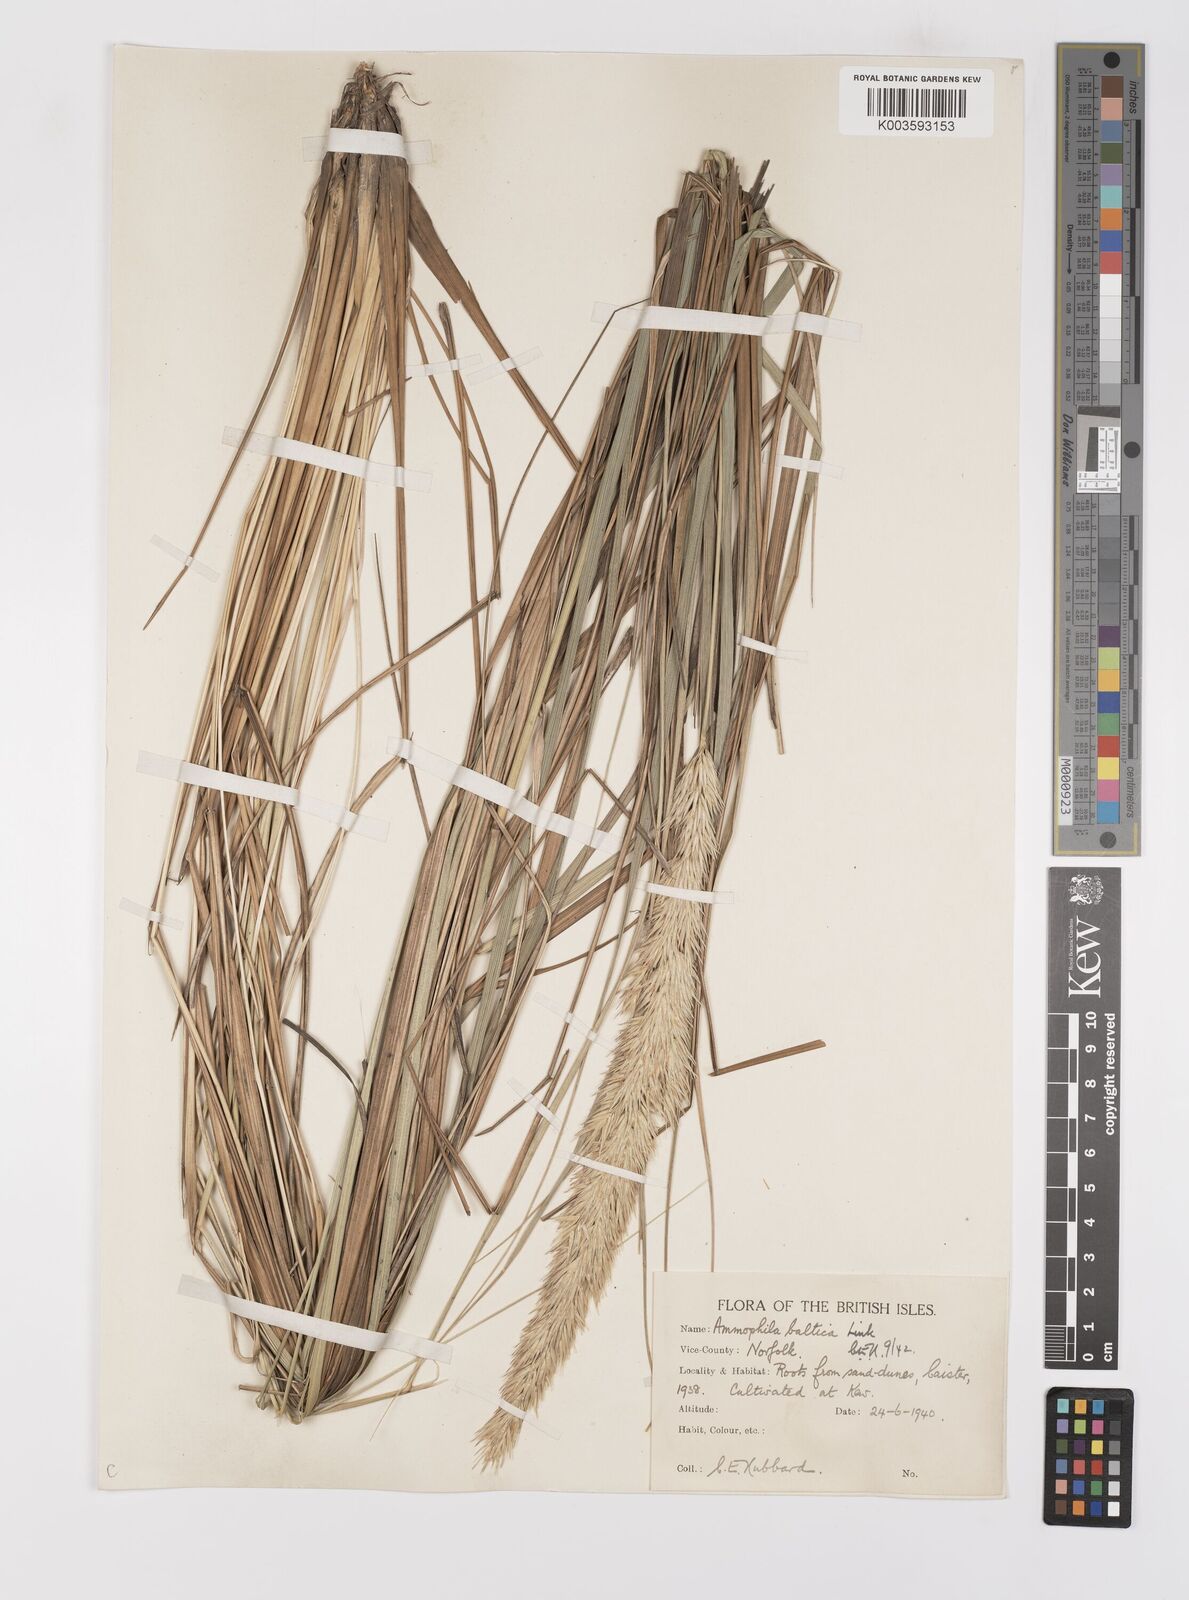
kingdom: Plantae
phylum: Tracheophyta
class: Liliopsida
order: Poales
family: Poaceae
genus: Calamagrostis
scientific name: Calamagrostis baltica
